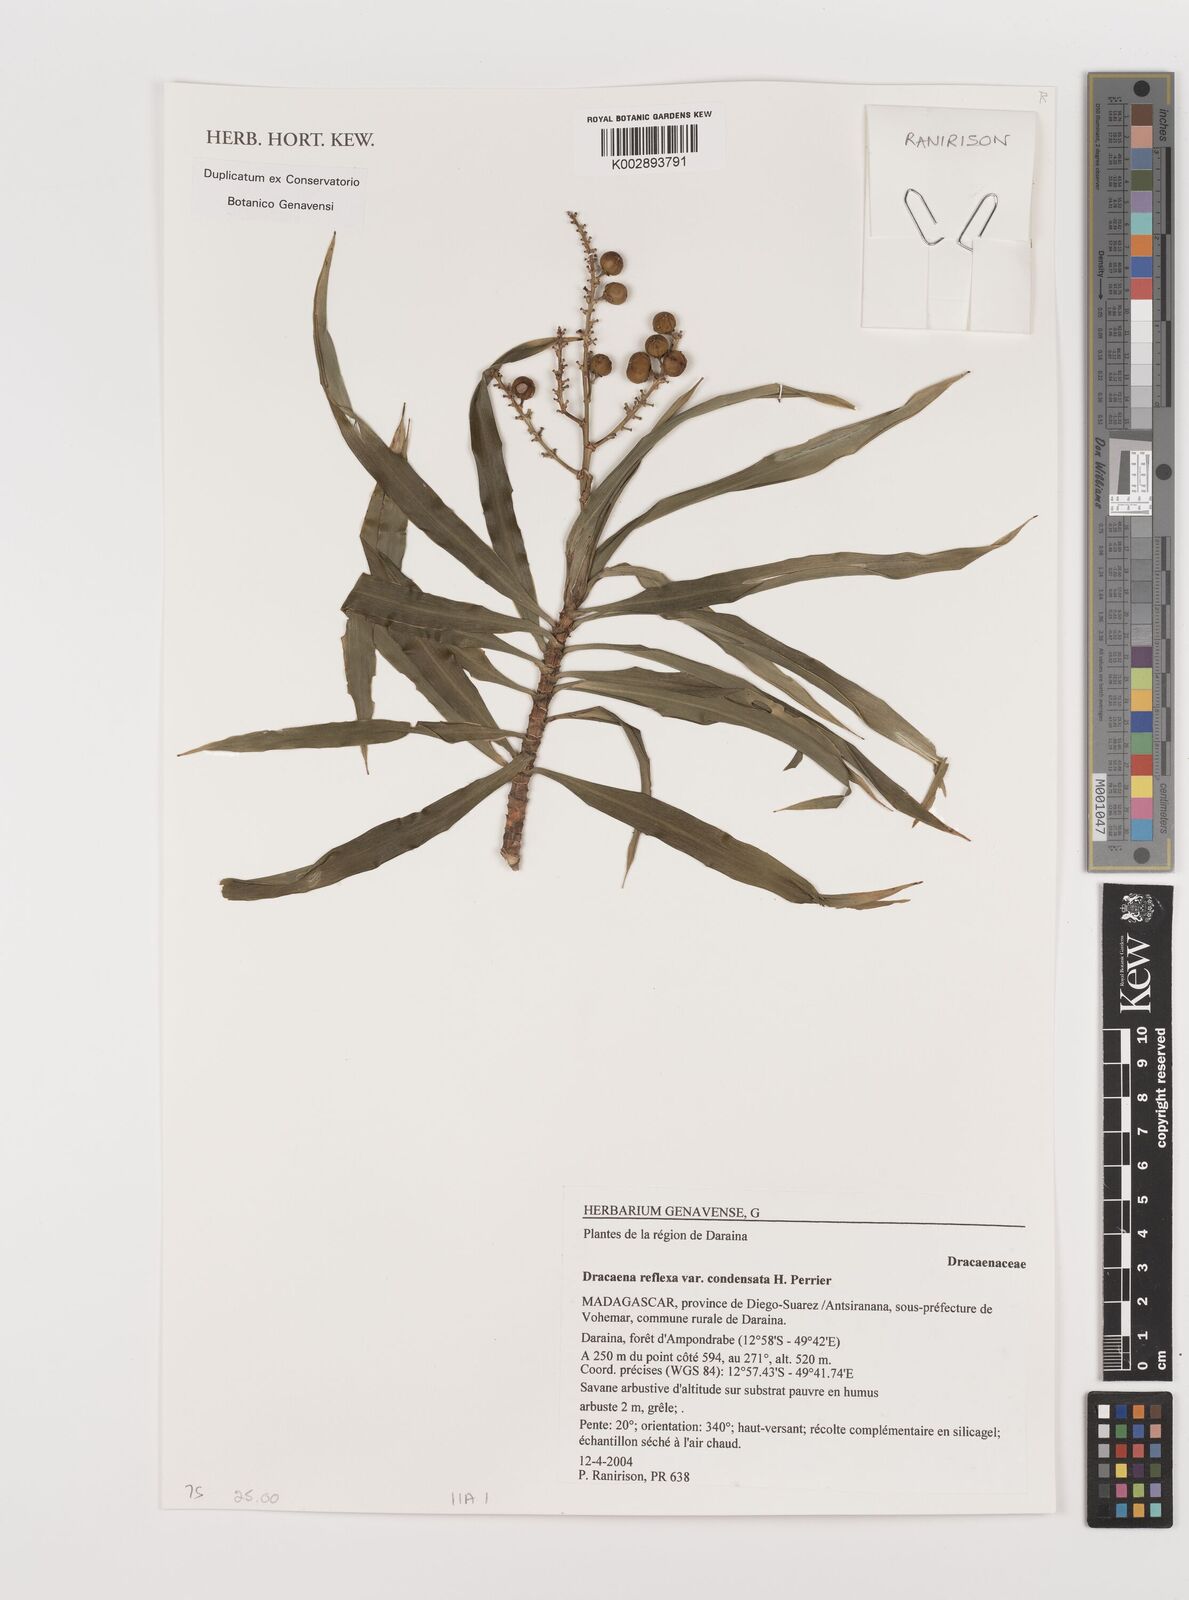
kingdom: Plantae
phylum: Tracheophyta
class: Liliopsida
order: Asparagales
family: Asparagaceae
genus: Dracaena
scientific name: Dracaena reflexa
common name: Song-of-india
